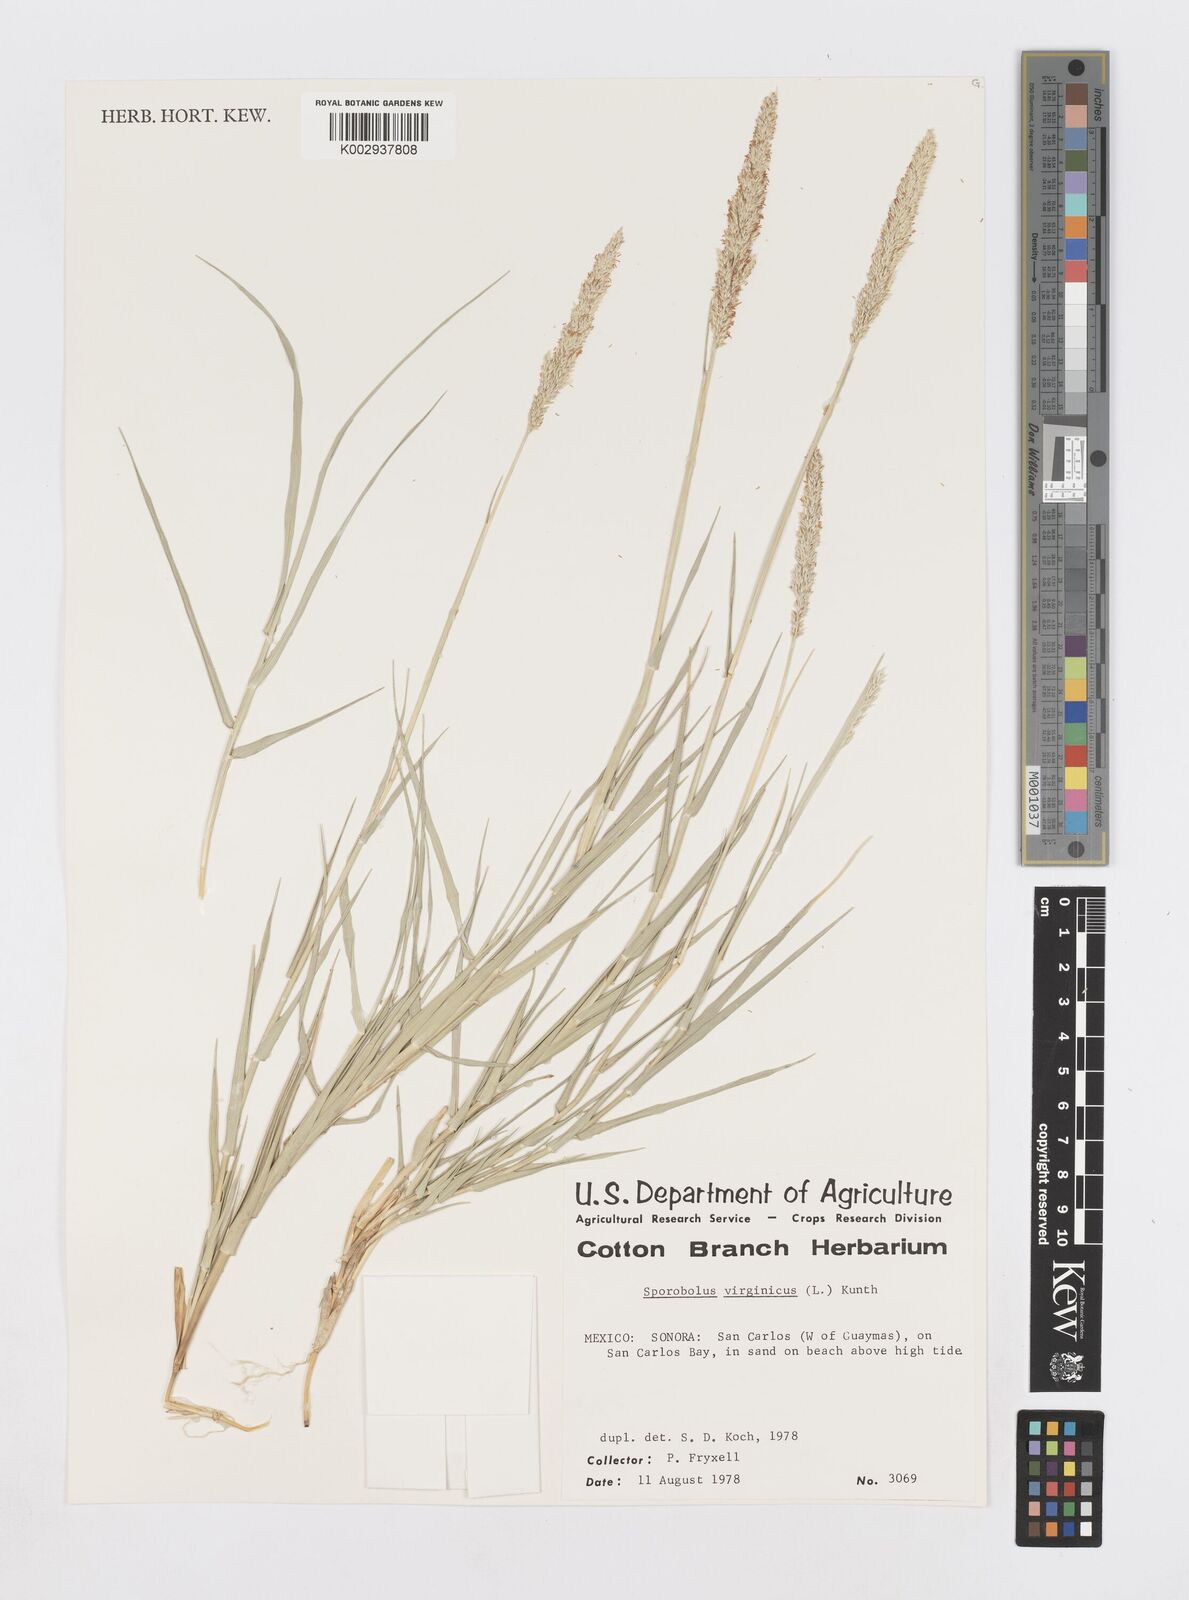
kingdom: Plantae
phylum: Tracheophyta
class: Liliopsida
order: Poales
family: Poaceae
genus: Sporobolus
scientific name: Sporobolus virginicus
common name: Beach dropseed
